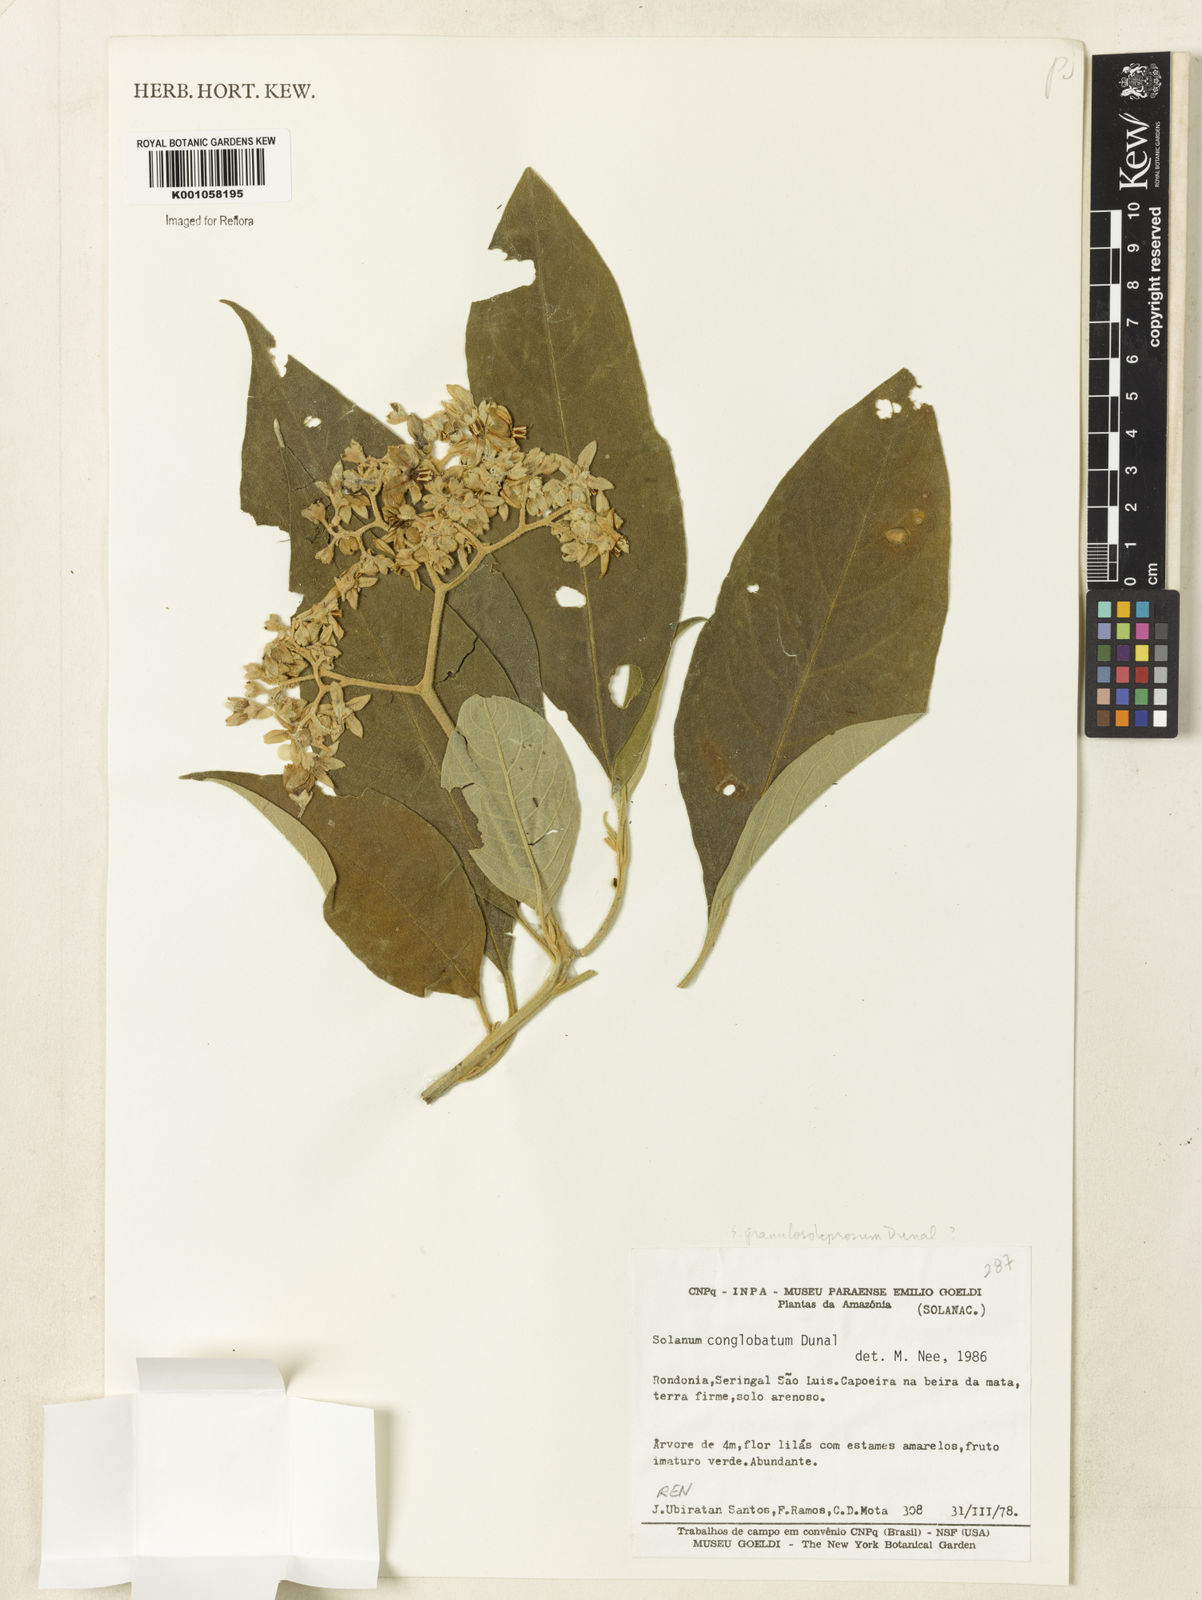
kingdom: Plantae
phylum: Tracheophyta
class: Magnoliopsida
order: Solanales
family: Solanaceae
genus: Solanum
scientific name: Solanum conglobatum
